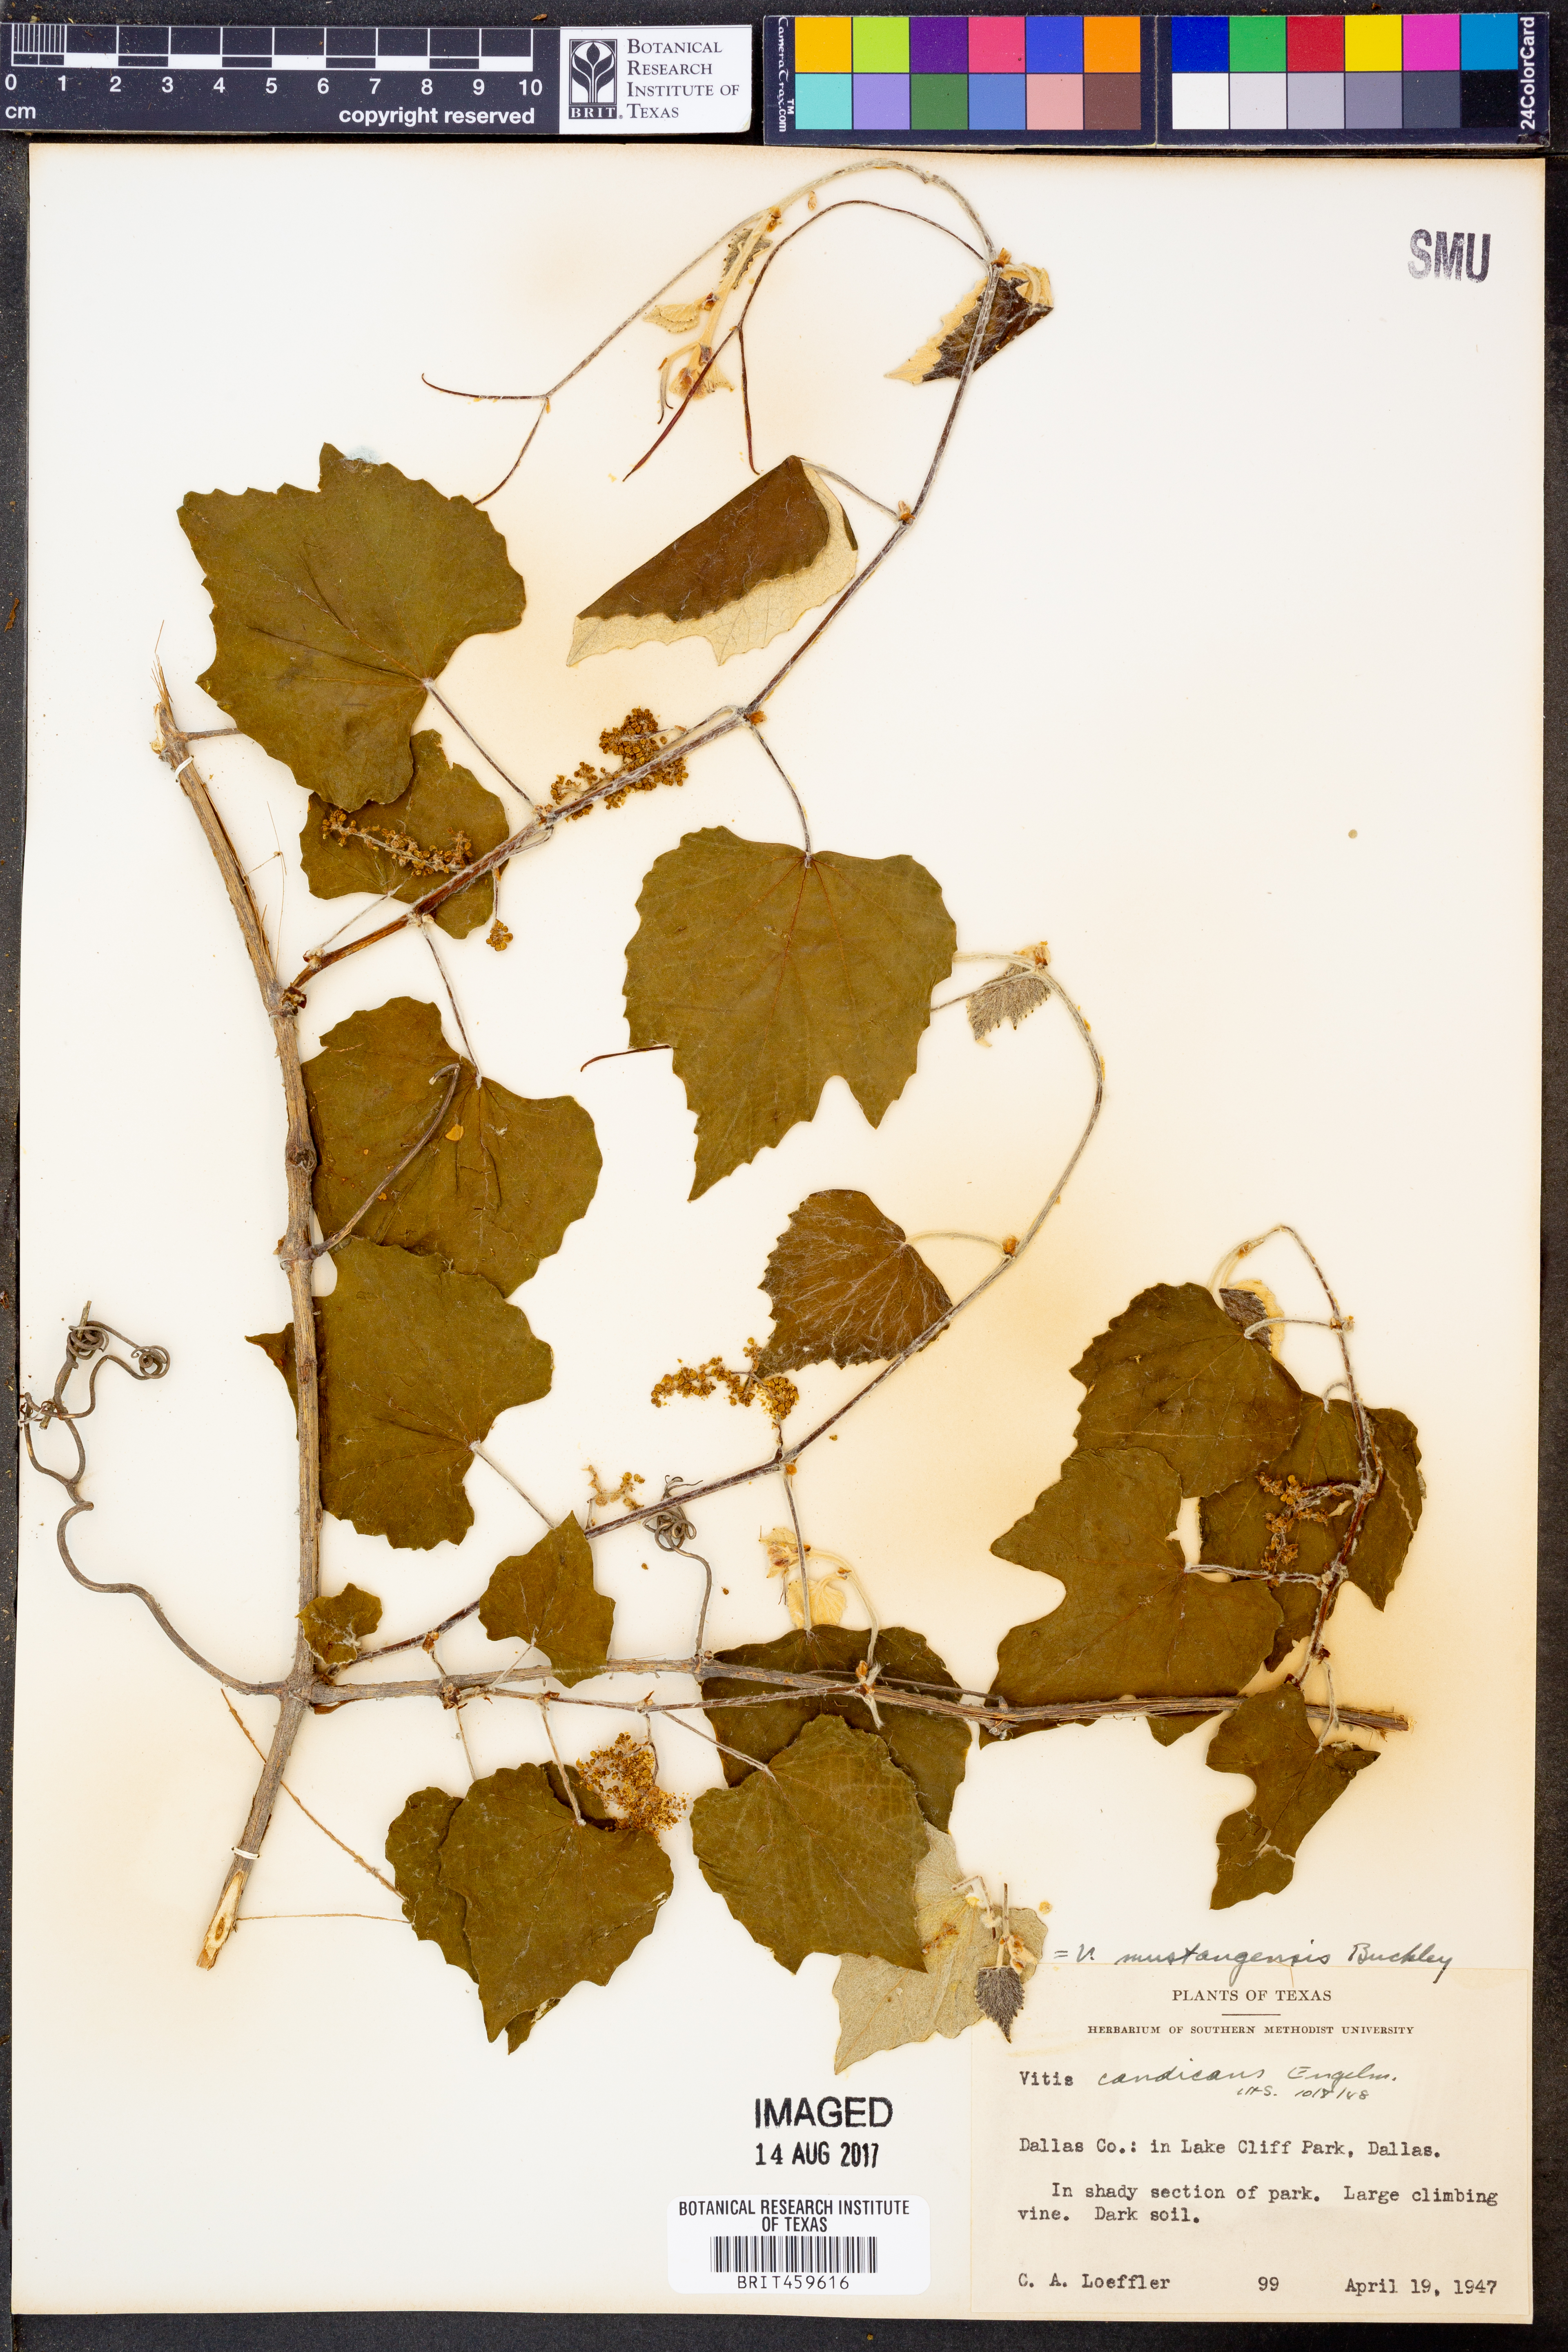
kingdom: Plantae
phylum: Tracheophyta
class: Magnoliopsida
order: Vitales
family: Vitaceae
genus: Vitis
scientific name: Vitis mustangensis
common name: Mustang grape
